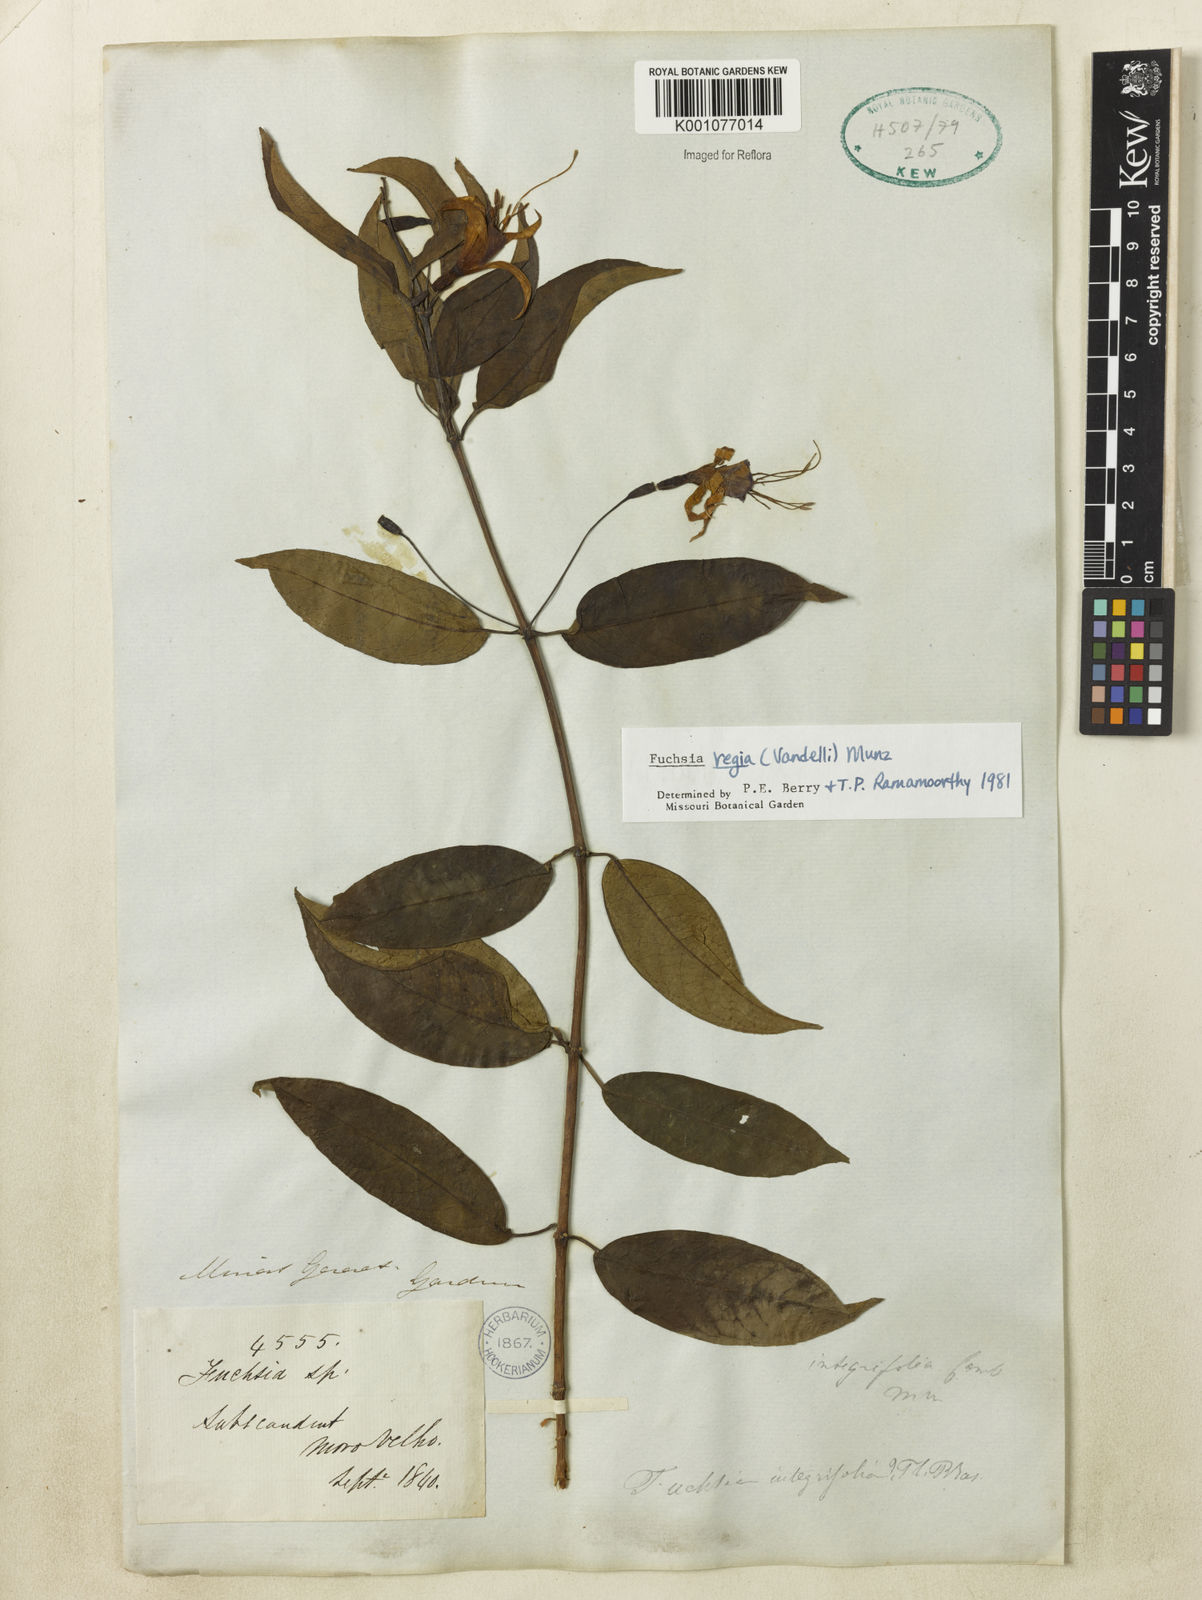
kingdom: Plantae
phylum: Tracheophyta
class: Magnoliopsida
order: Myrtales
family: Onagraceae
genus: Fuchsia
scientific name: Fuchsia regia
